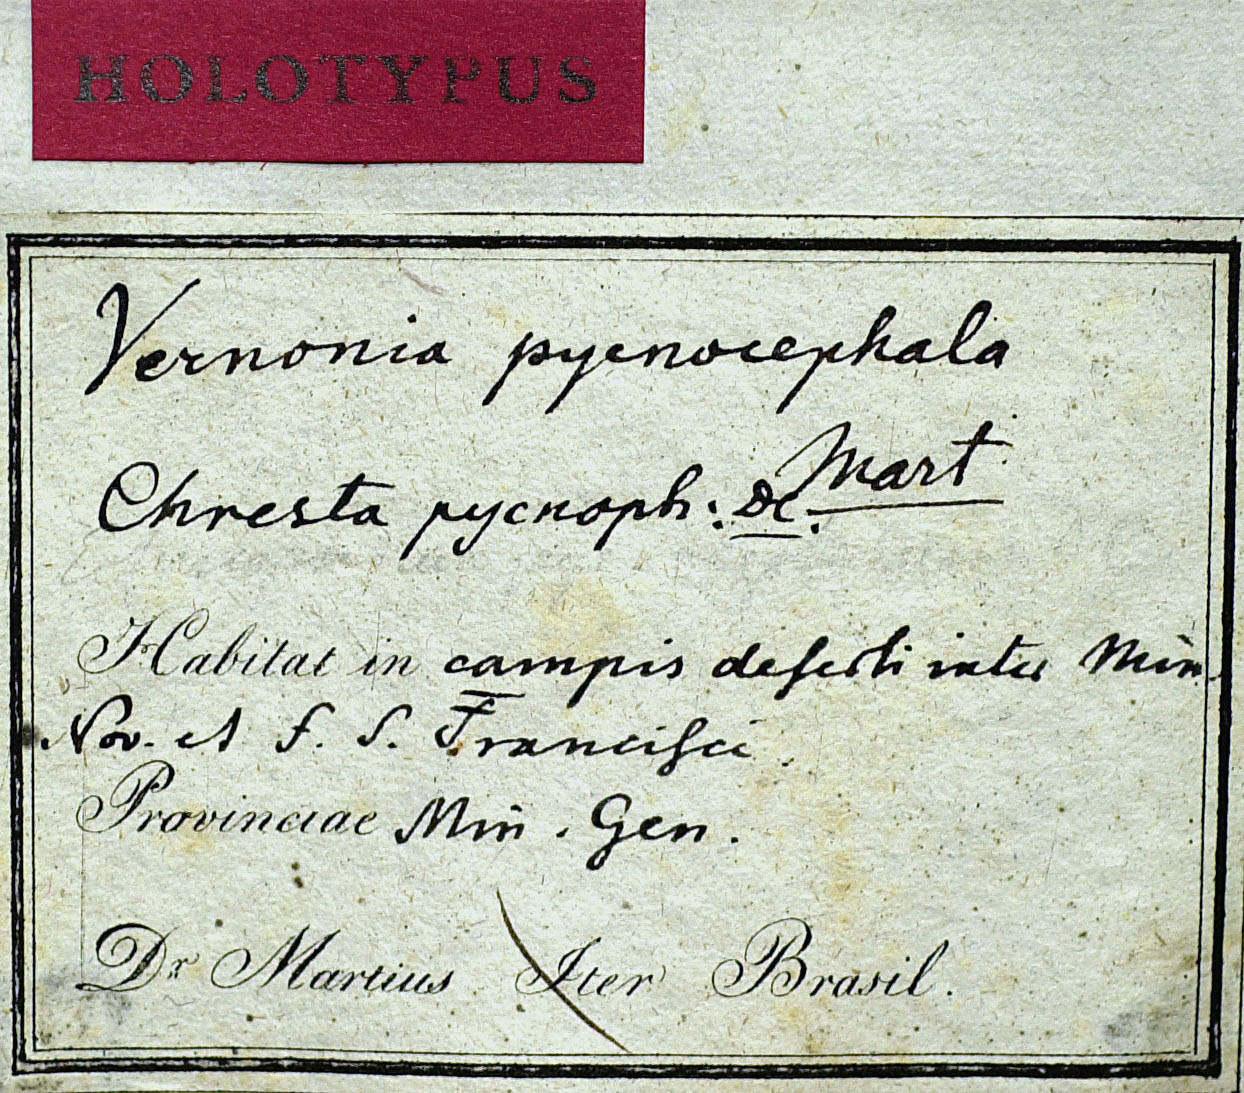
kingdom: Plantae
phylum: Tracheophyta
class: Magnoliopsida
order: Asterales
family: Asteraceae
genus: Chresta
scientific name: Chresta pycnocephala
